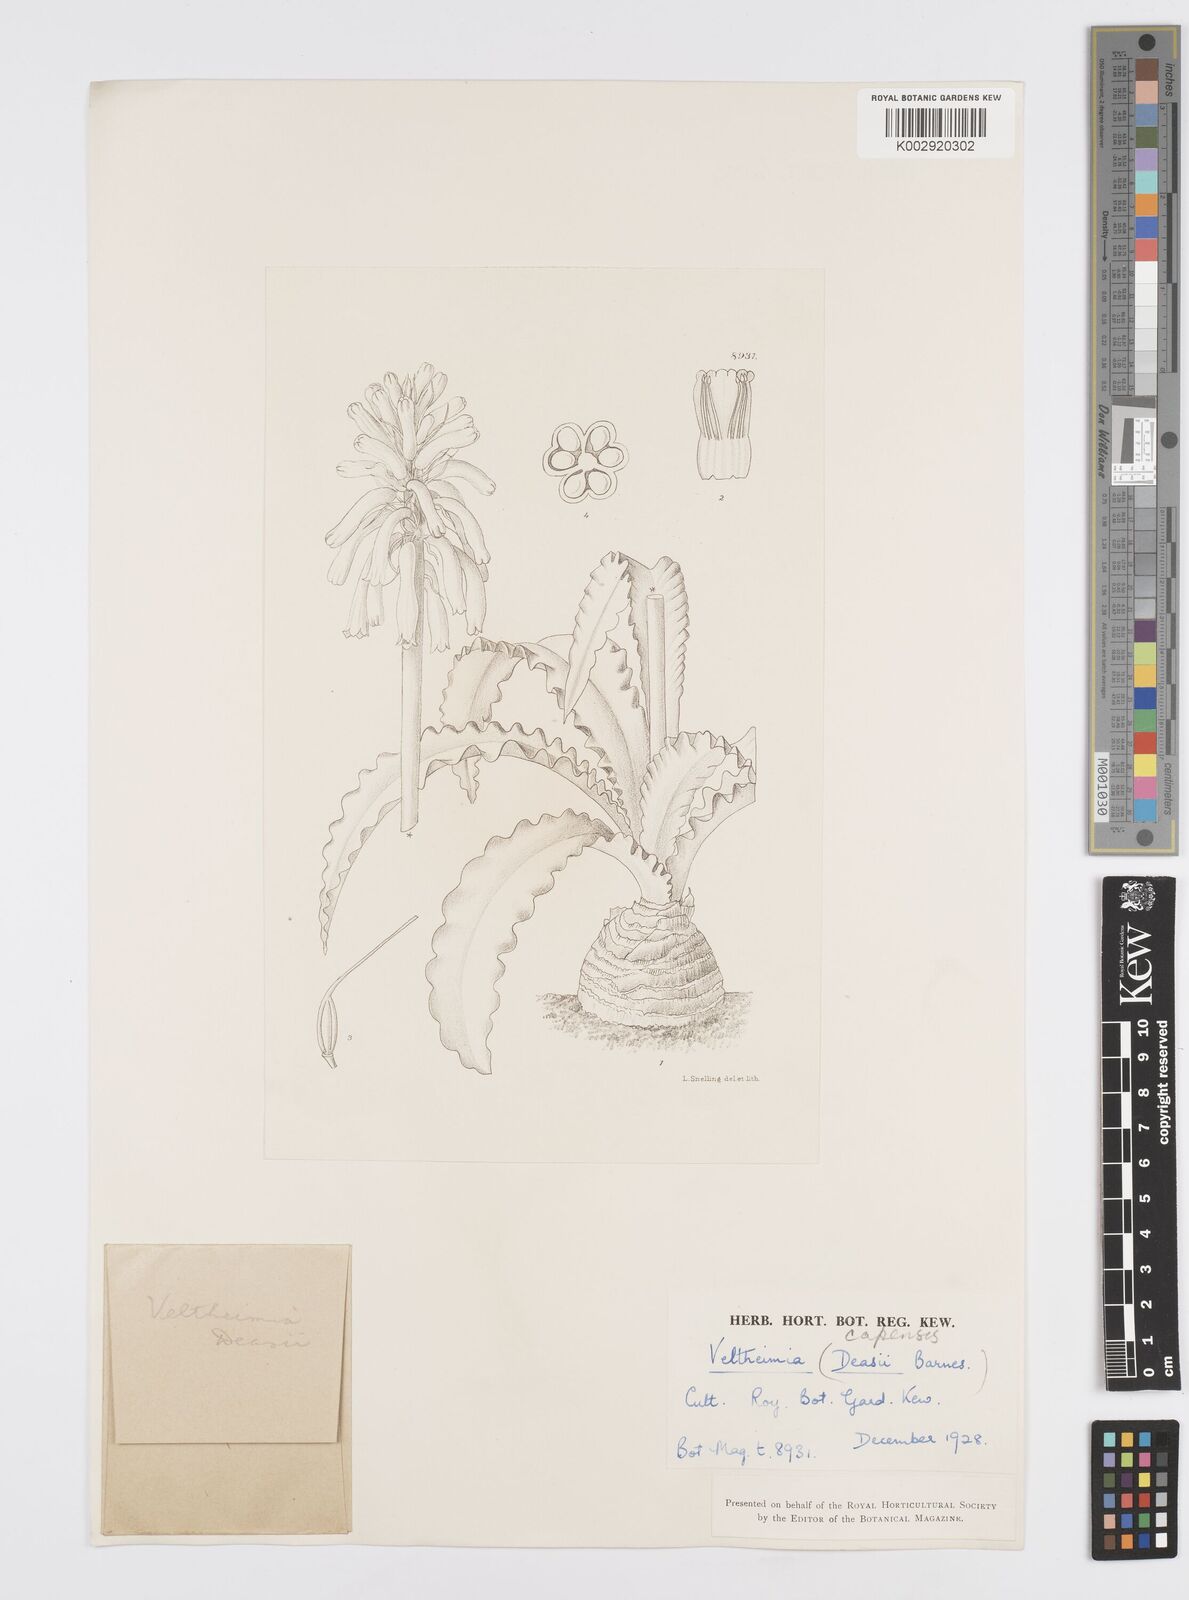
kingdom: Plantae
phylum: Tracheophyta
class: Liliopsida
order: Asparagales
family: Asparagaceae
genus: Veltheimia
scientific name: Veltheimia capensis
